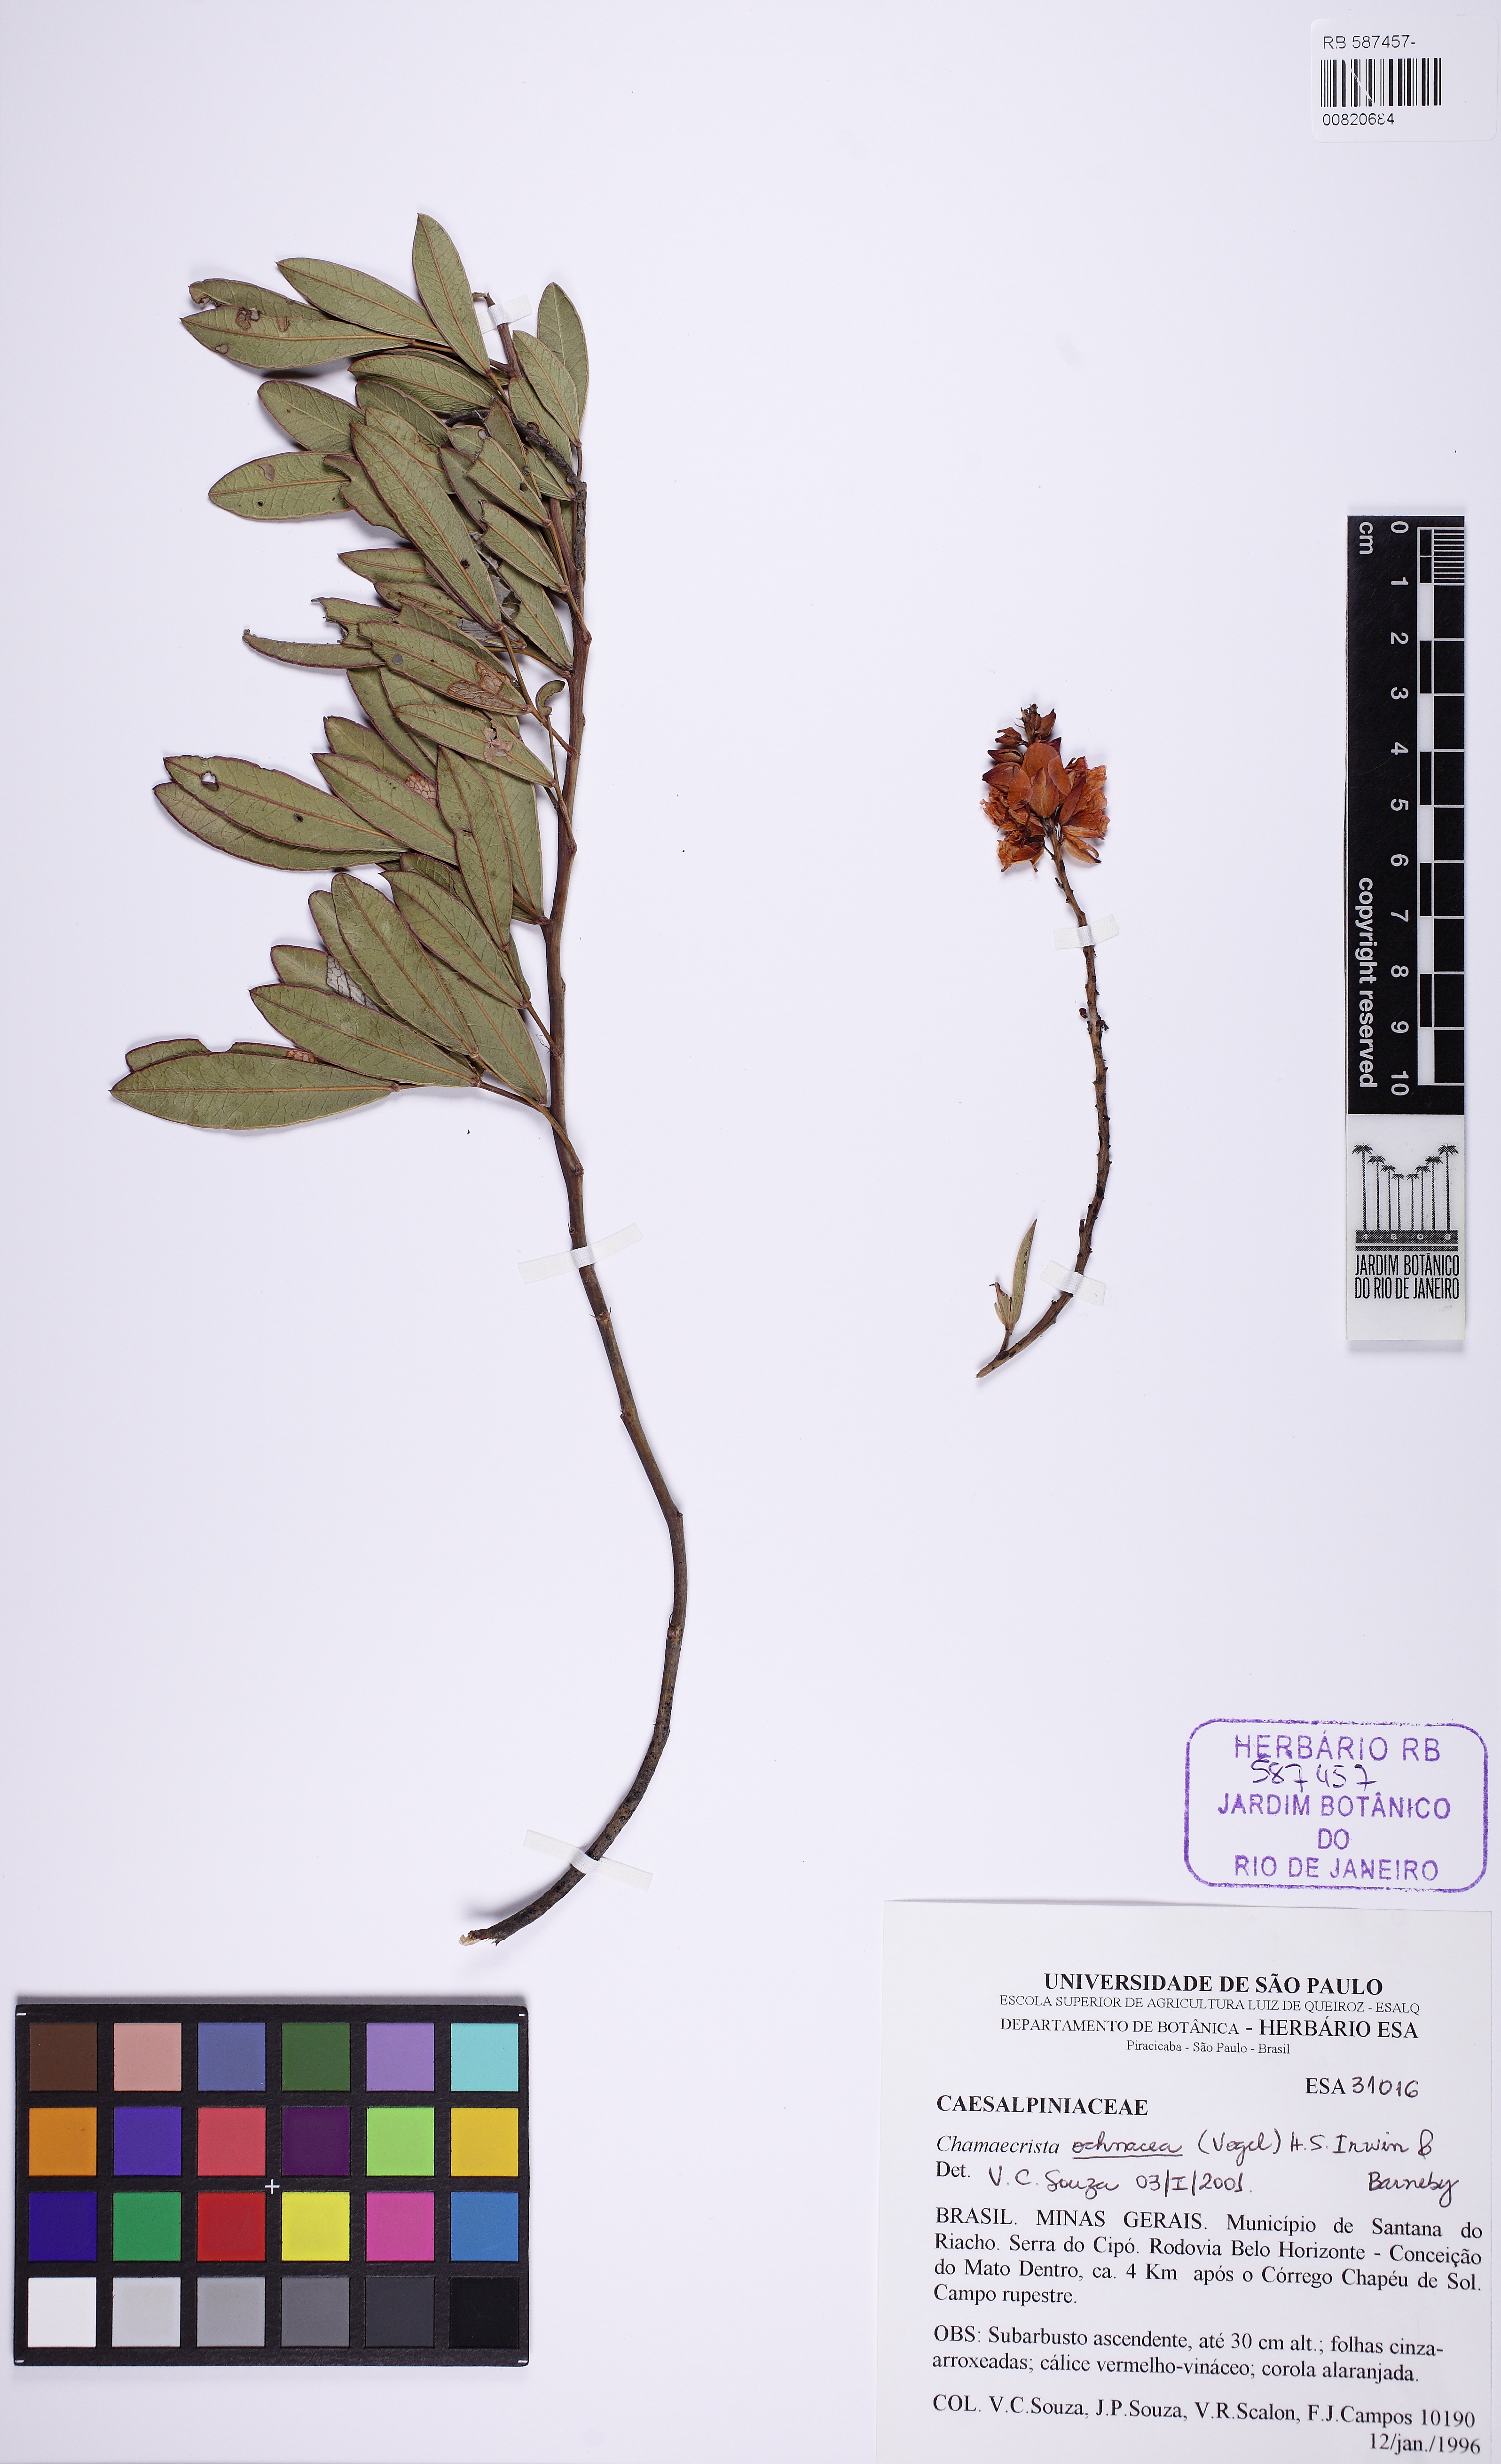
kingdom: Plantae
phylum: Tracheophyta
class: Magnoliopsida
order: Fabales
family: Fabaceae
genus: Chamaecrista
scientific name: Chamaecrista ochnacea
